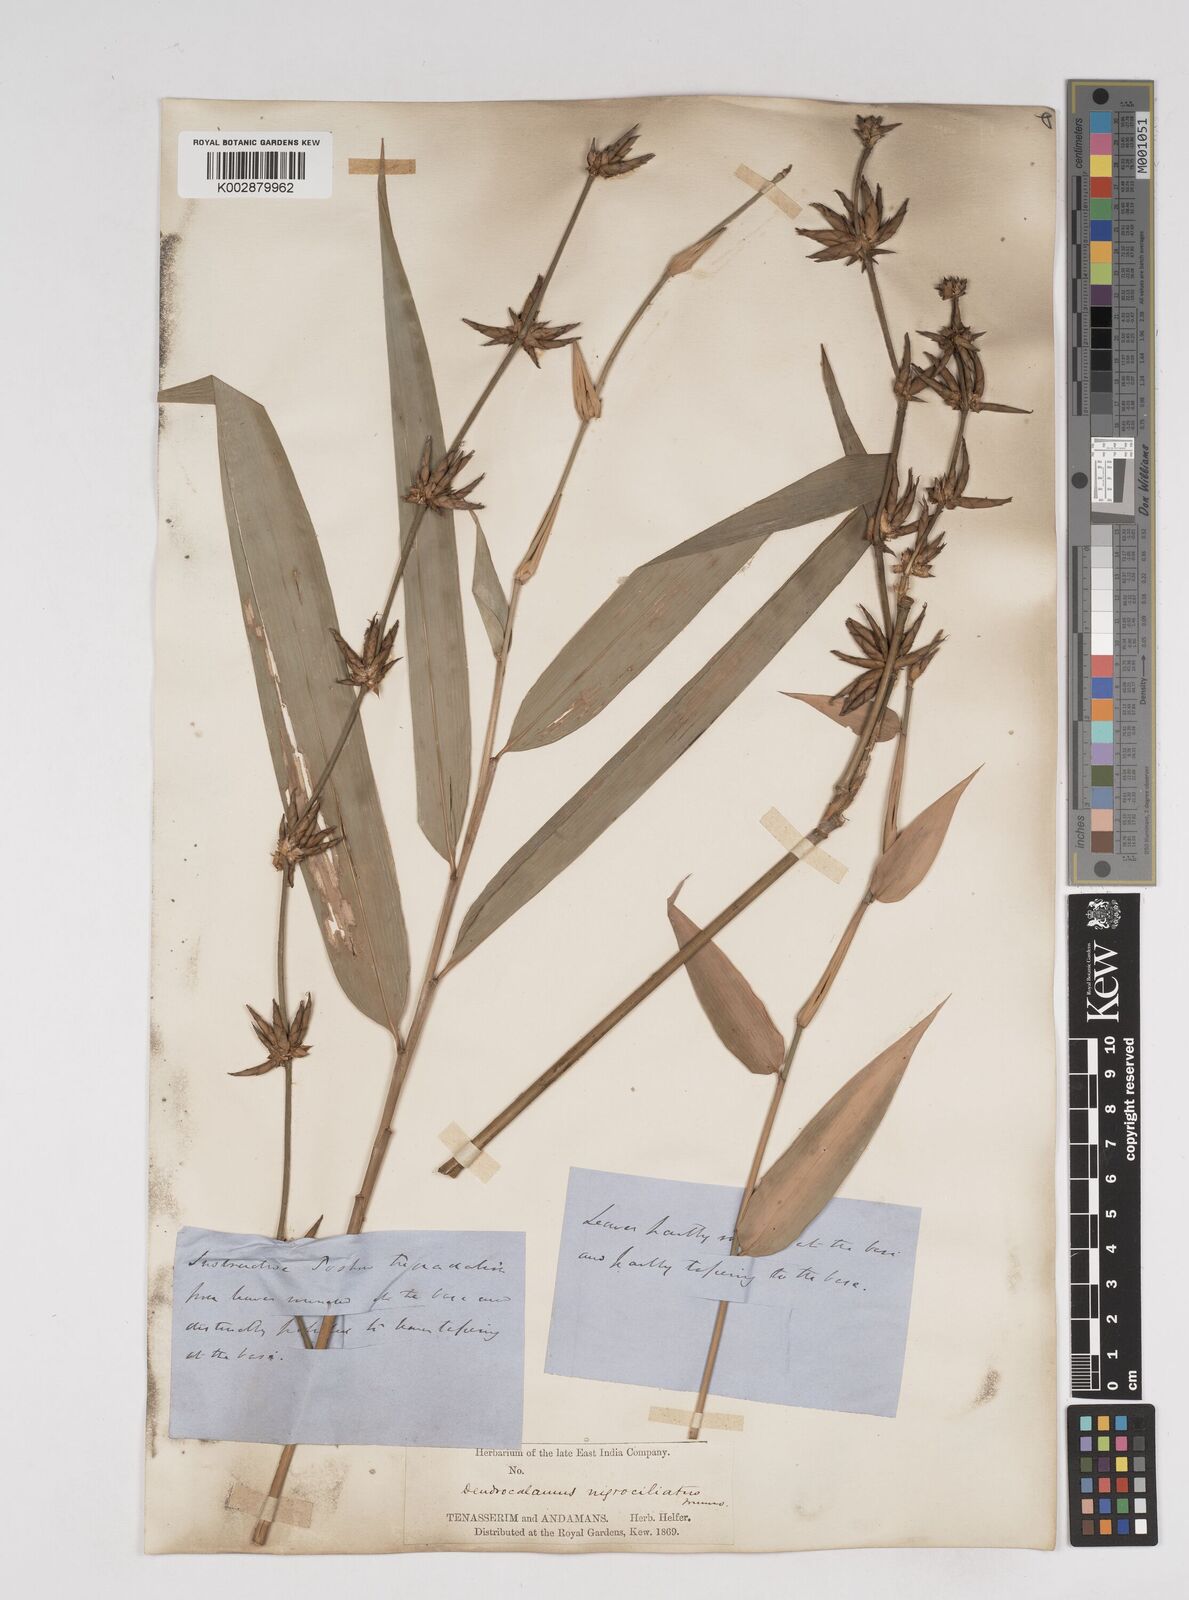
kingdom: Plantae
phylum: Tracheophyta
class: Liliopsida
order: Poales
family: Poaceae
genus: Gigantochloa
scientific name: Gigantochloa nigrociliata
